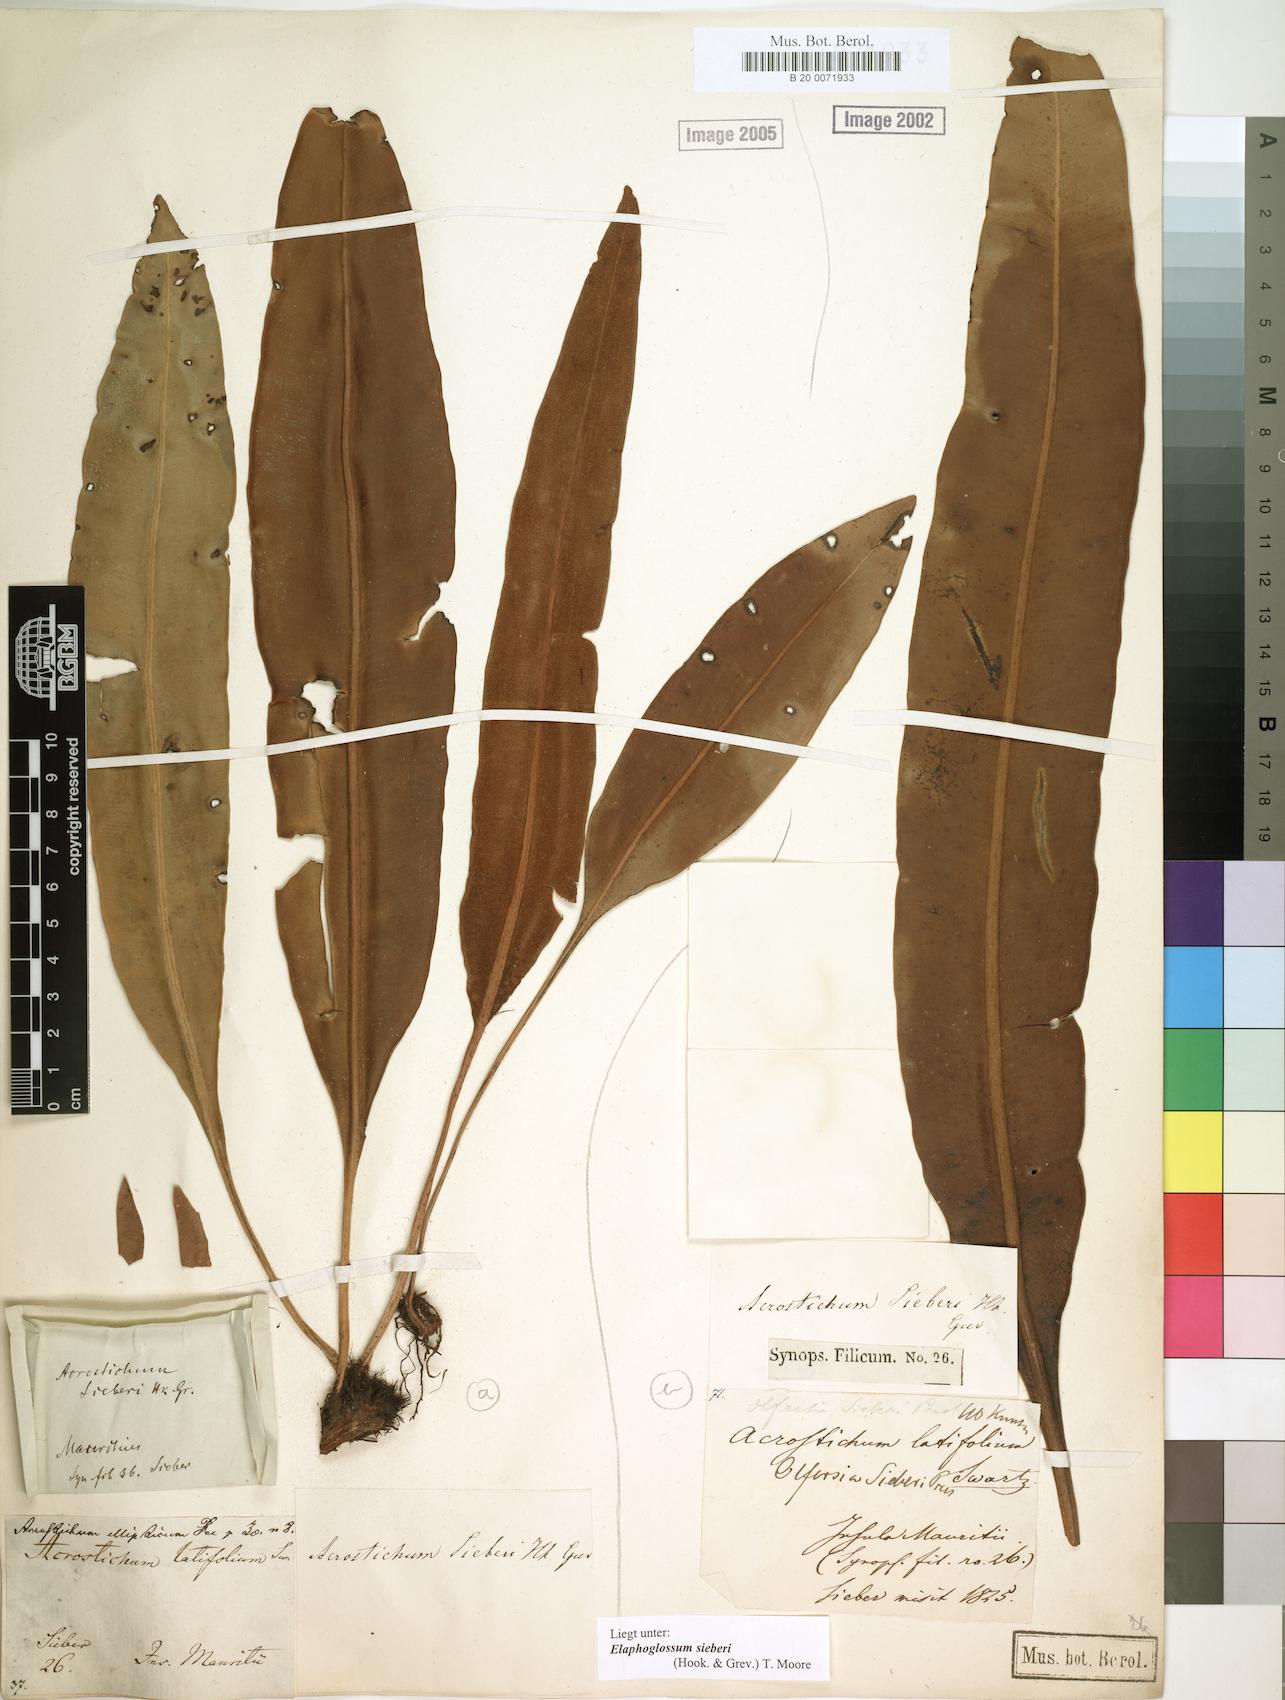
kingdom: Plantae
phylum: Tracheophyta
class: Polypodiopsida
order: Polypodiales
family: Dryopteridaceae
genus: Elaphoglossum
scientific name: Elaphoglossum sieberi
